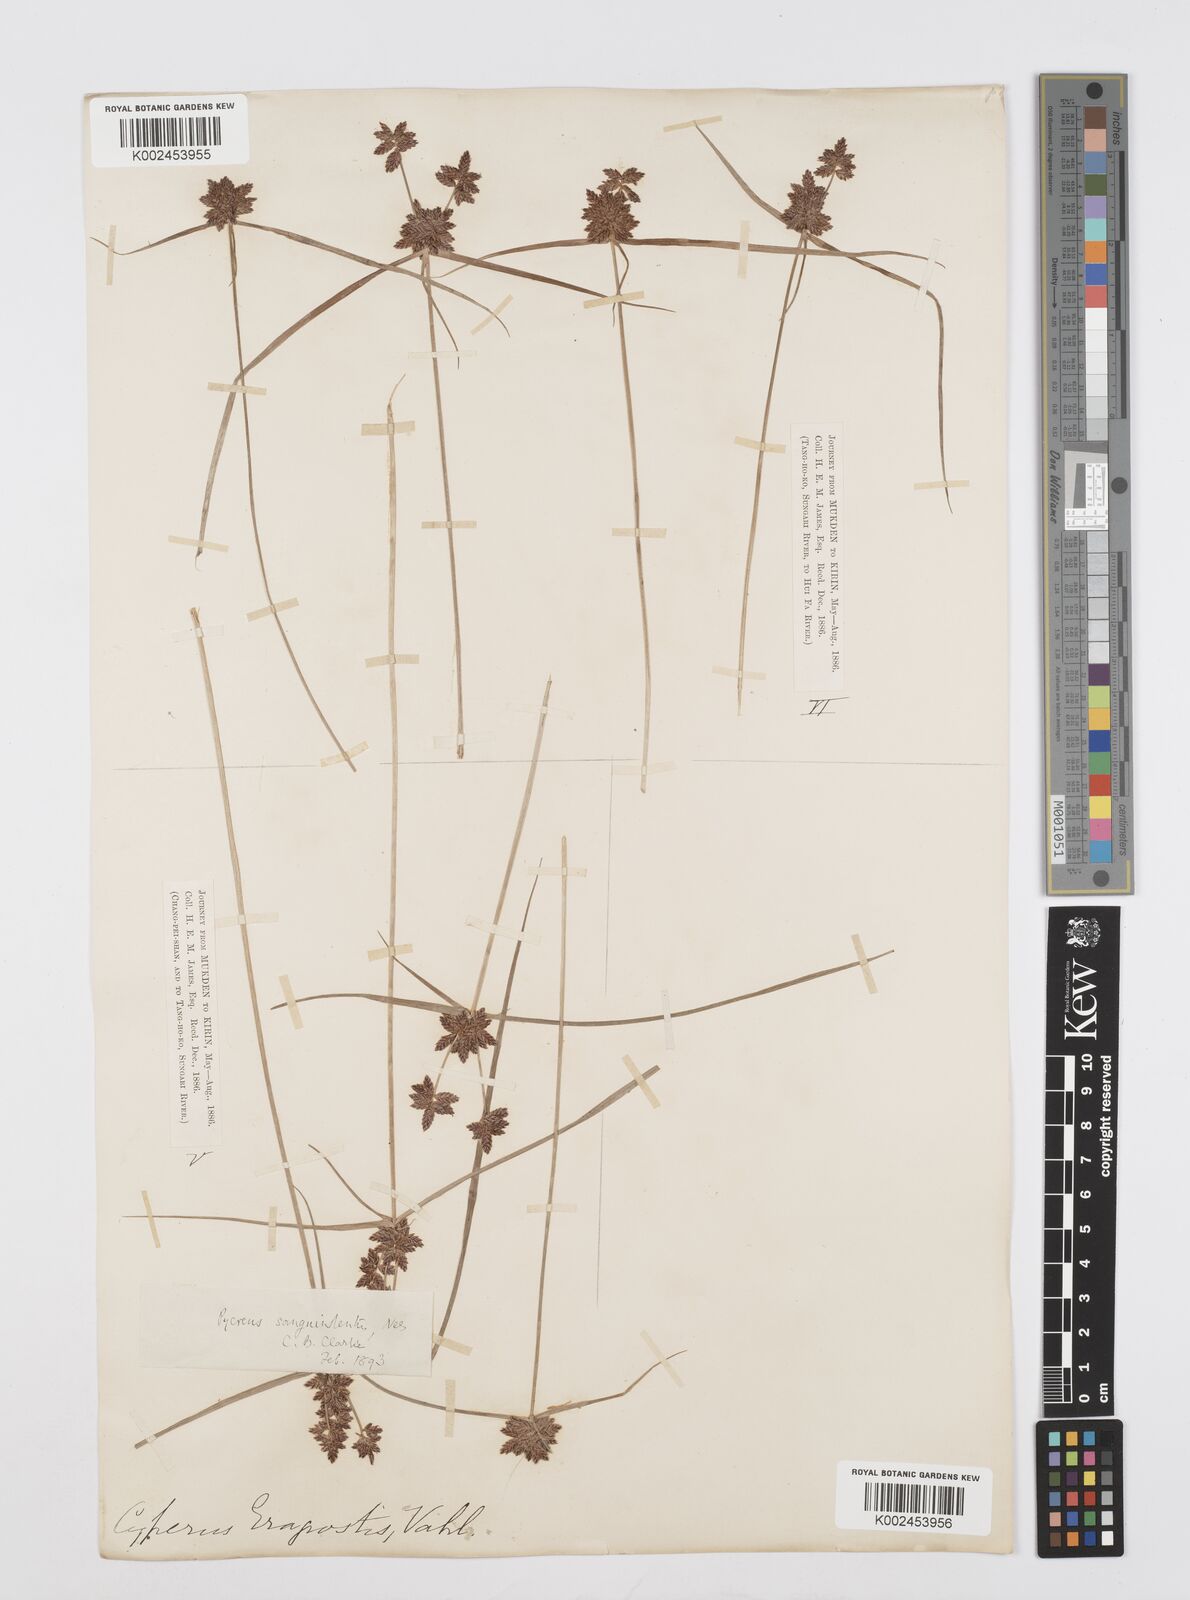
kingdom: Plantae
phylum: Tracheophyta
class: Liliopsida
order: Poales
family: Cyperaceae
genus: Cyperus
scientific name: Cyperus sanguinolentus
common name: Purpleglume flatsedge
